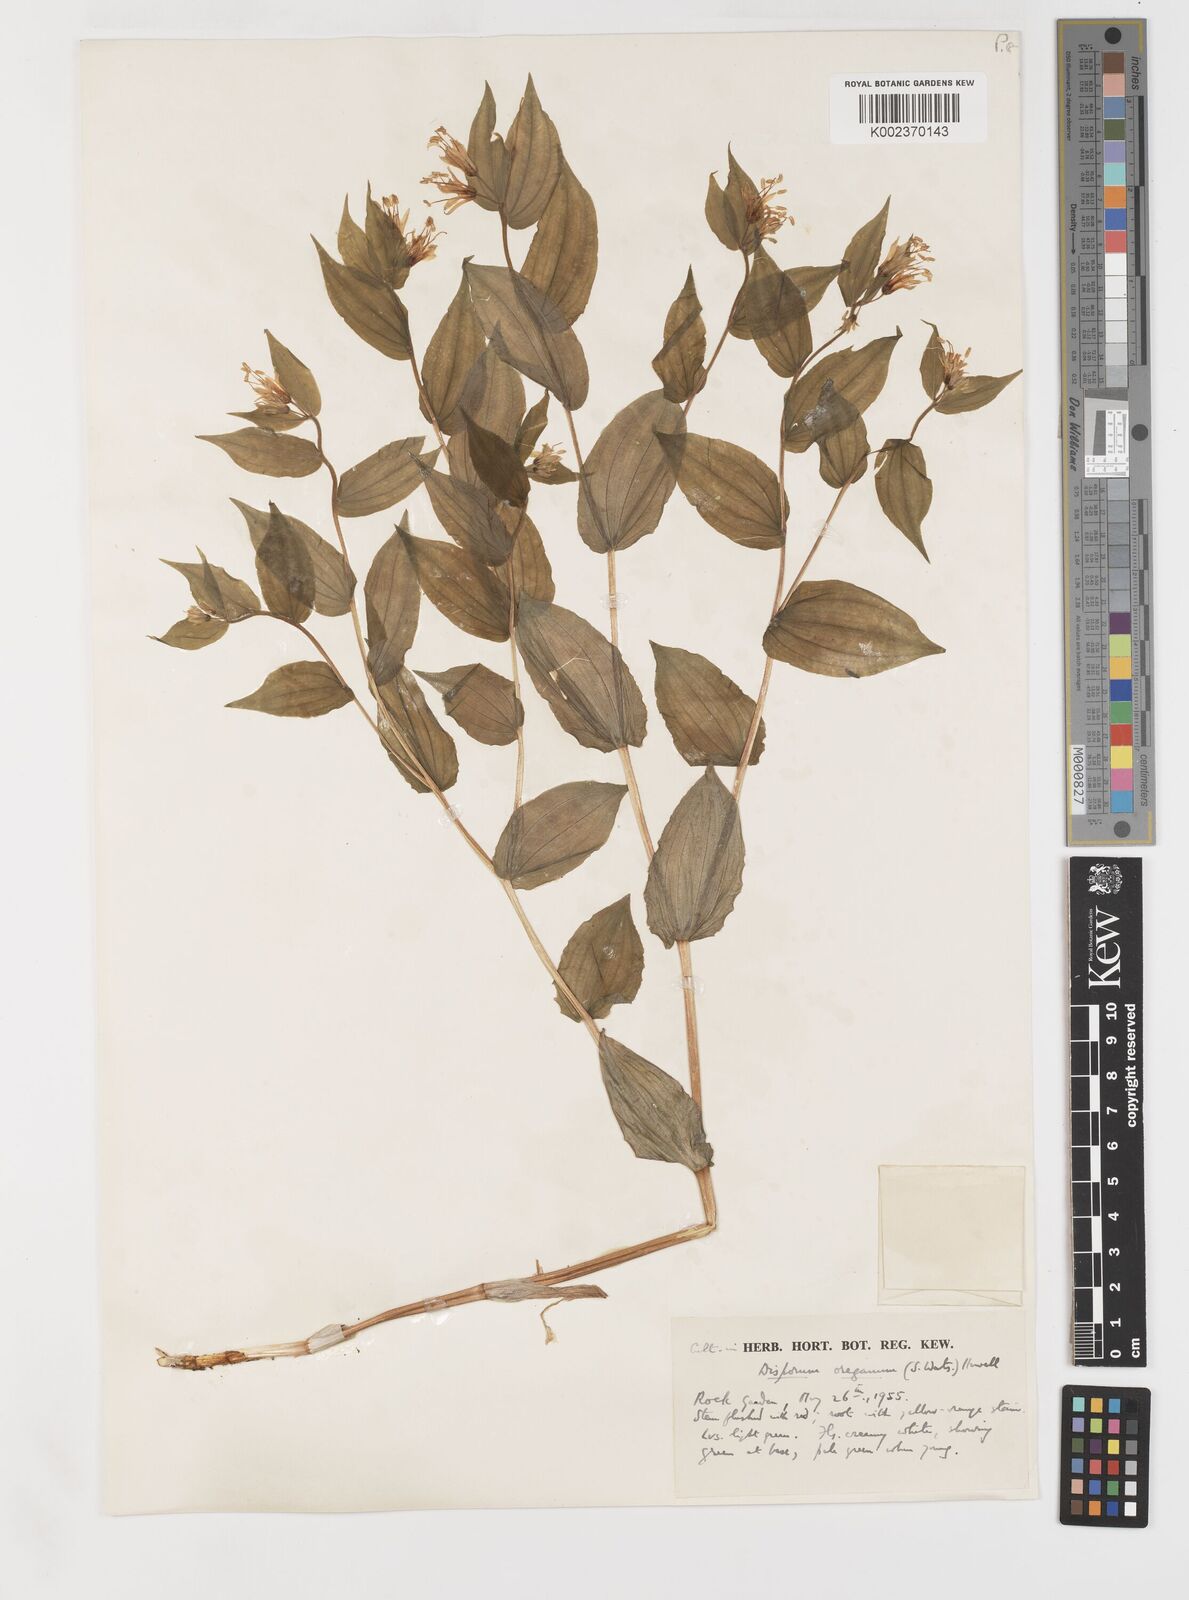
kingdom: Plantae
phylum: Tracheophyta
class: Liliopsida
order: Liliales
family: Liliaceae
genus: Prosartes
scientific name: Prosartes hookeri
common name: Fairy-bells
